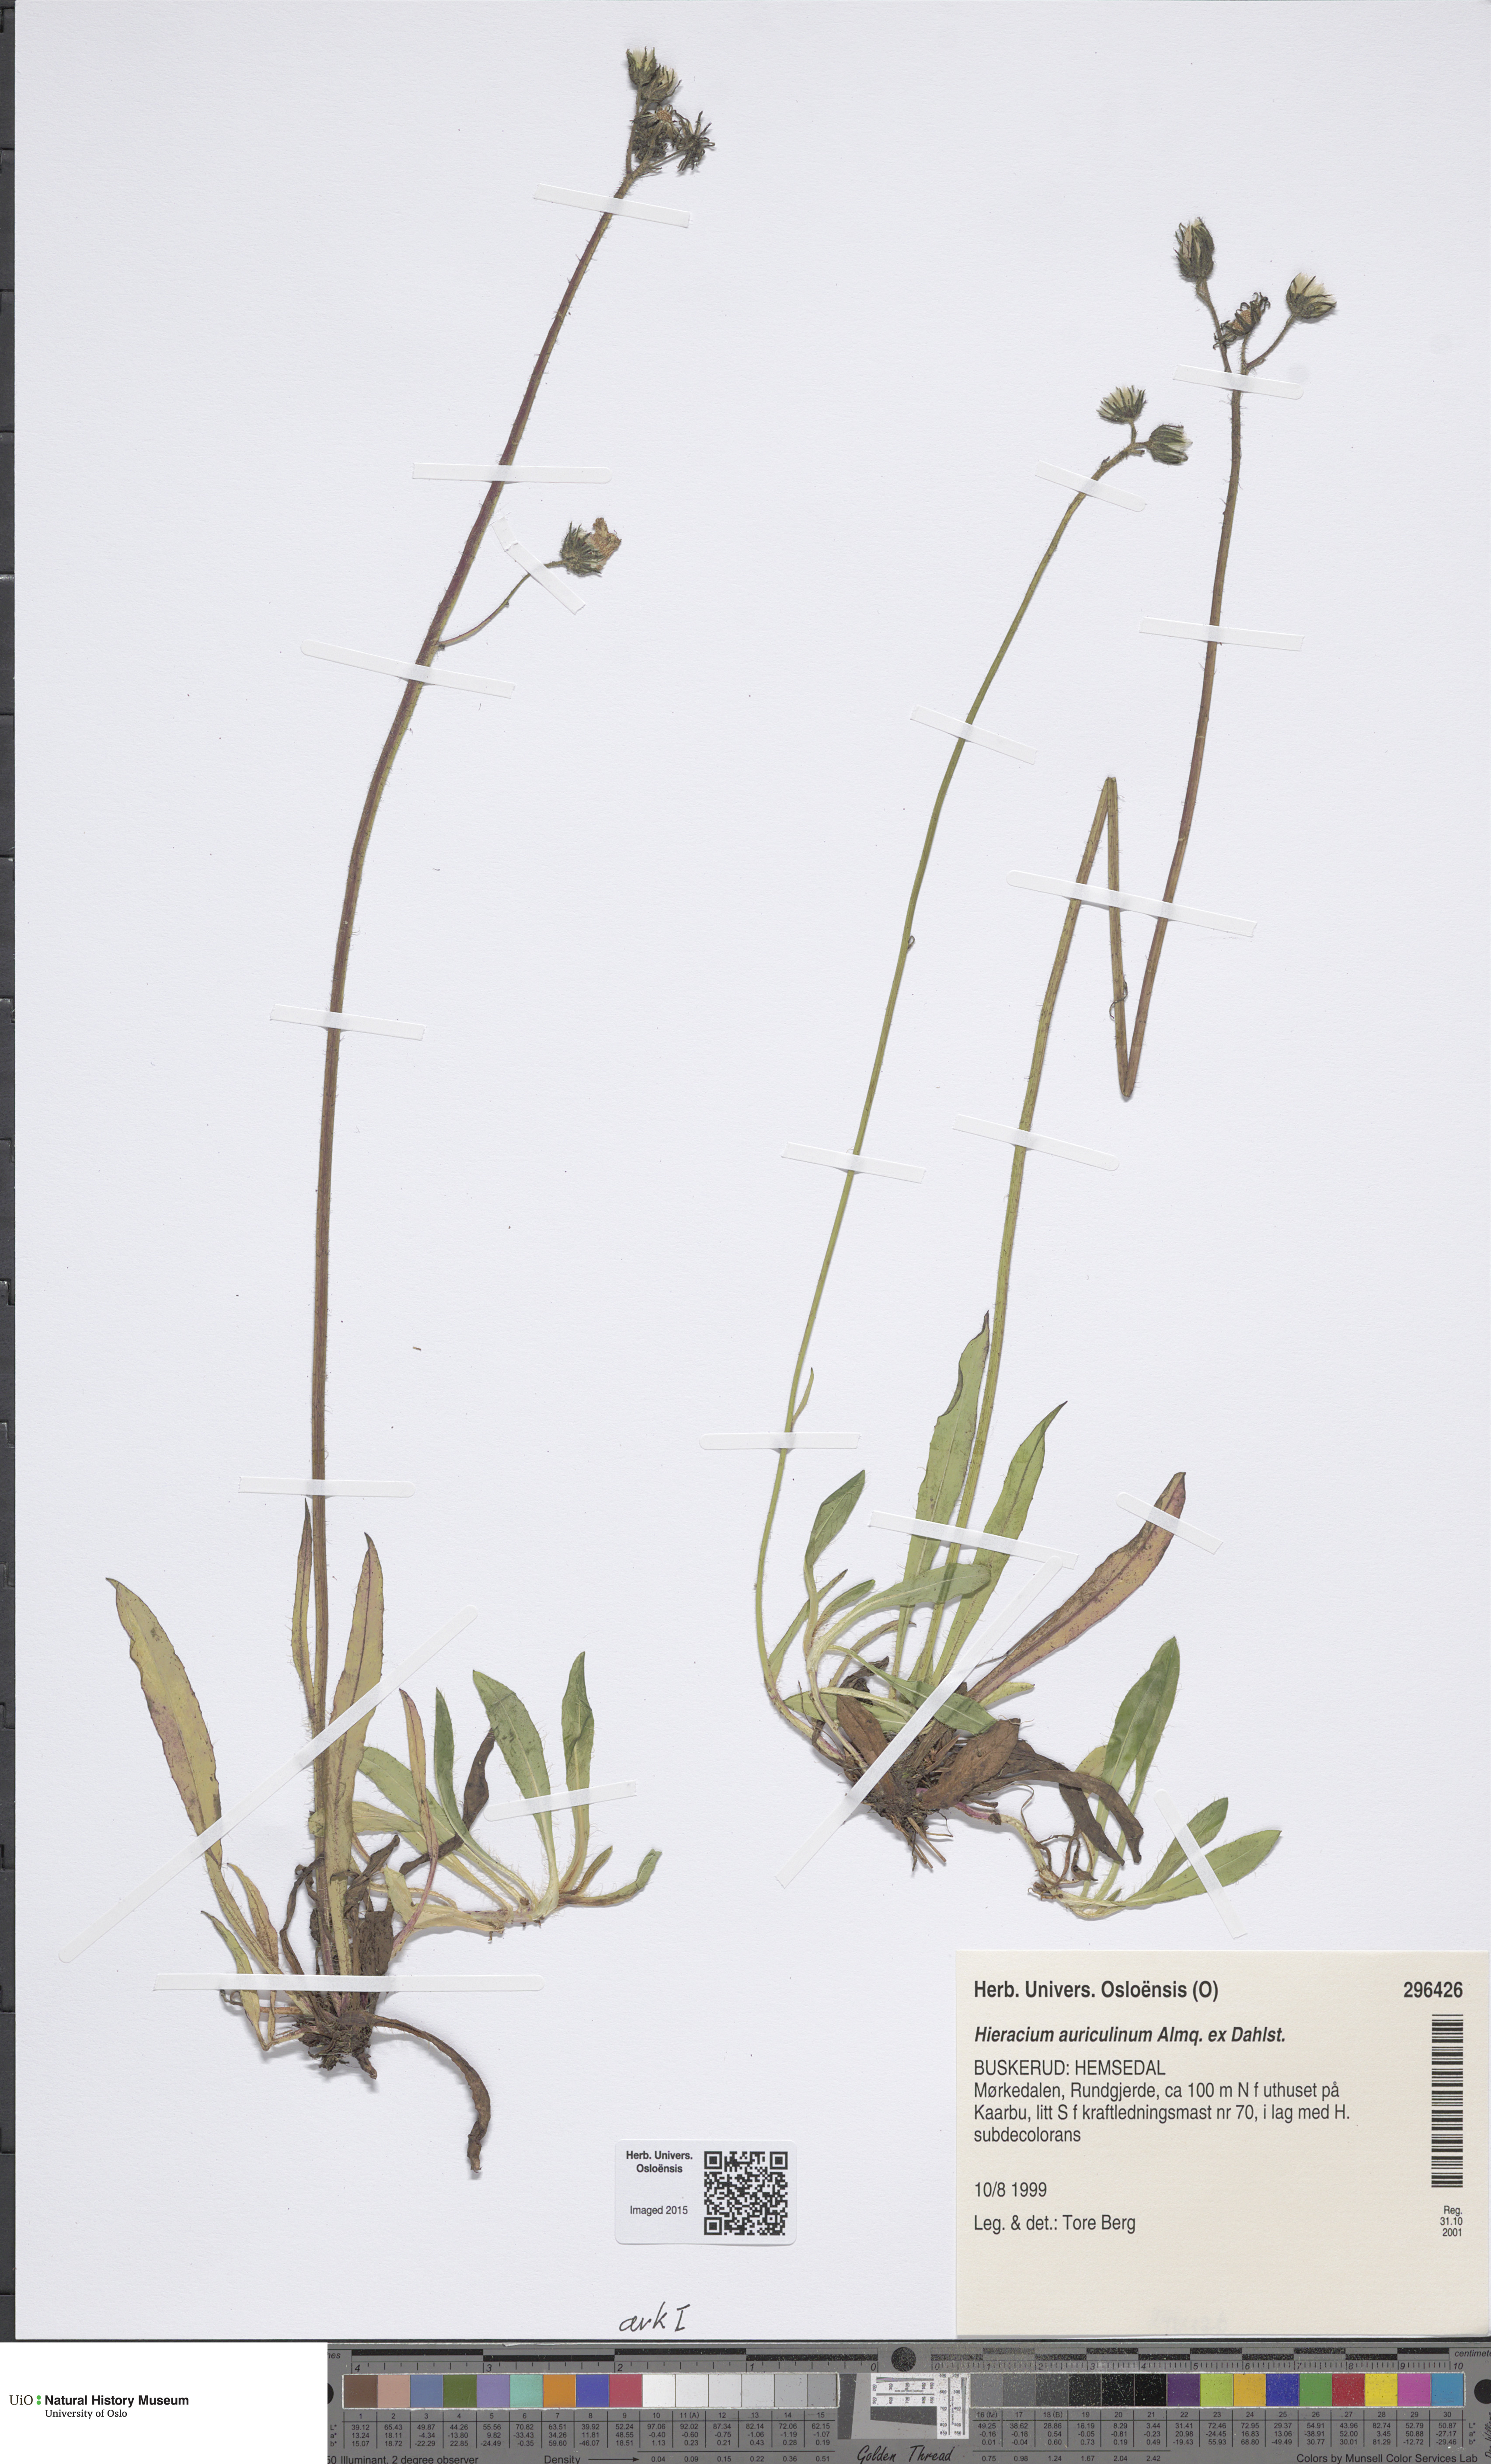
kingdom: Plantae
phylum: Tracheophyta
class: Magnoliopsida
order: Asterales
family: Asteraceae
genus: Pilosella
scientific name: Pilosella dubia
